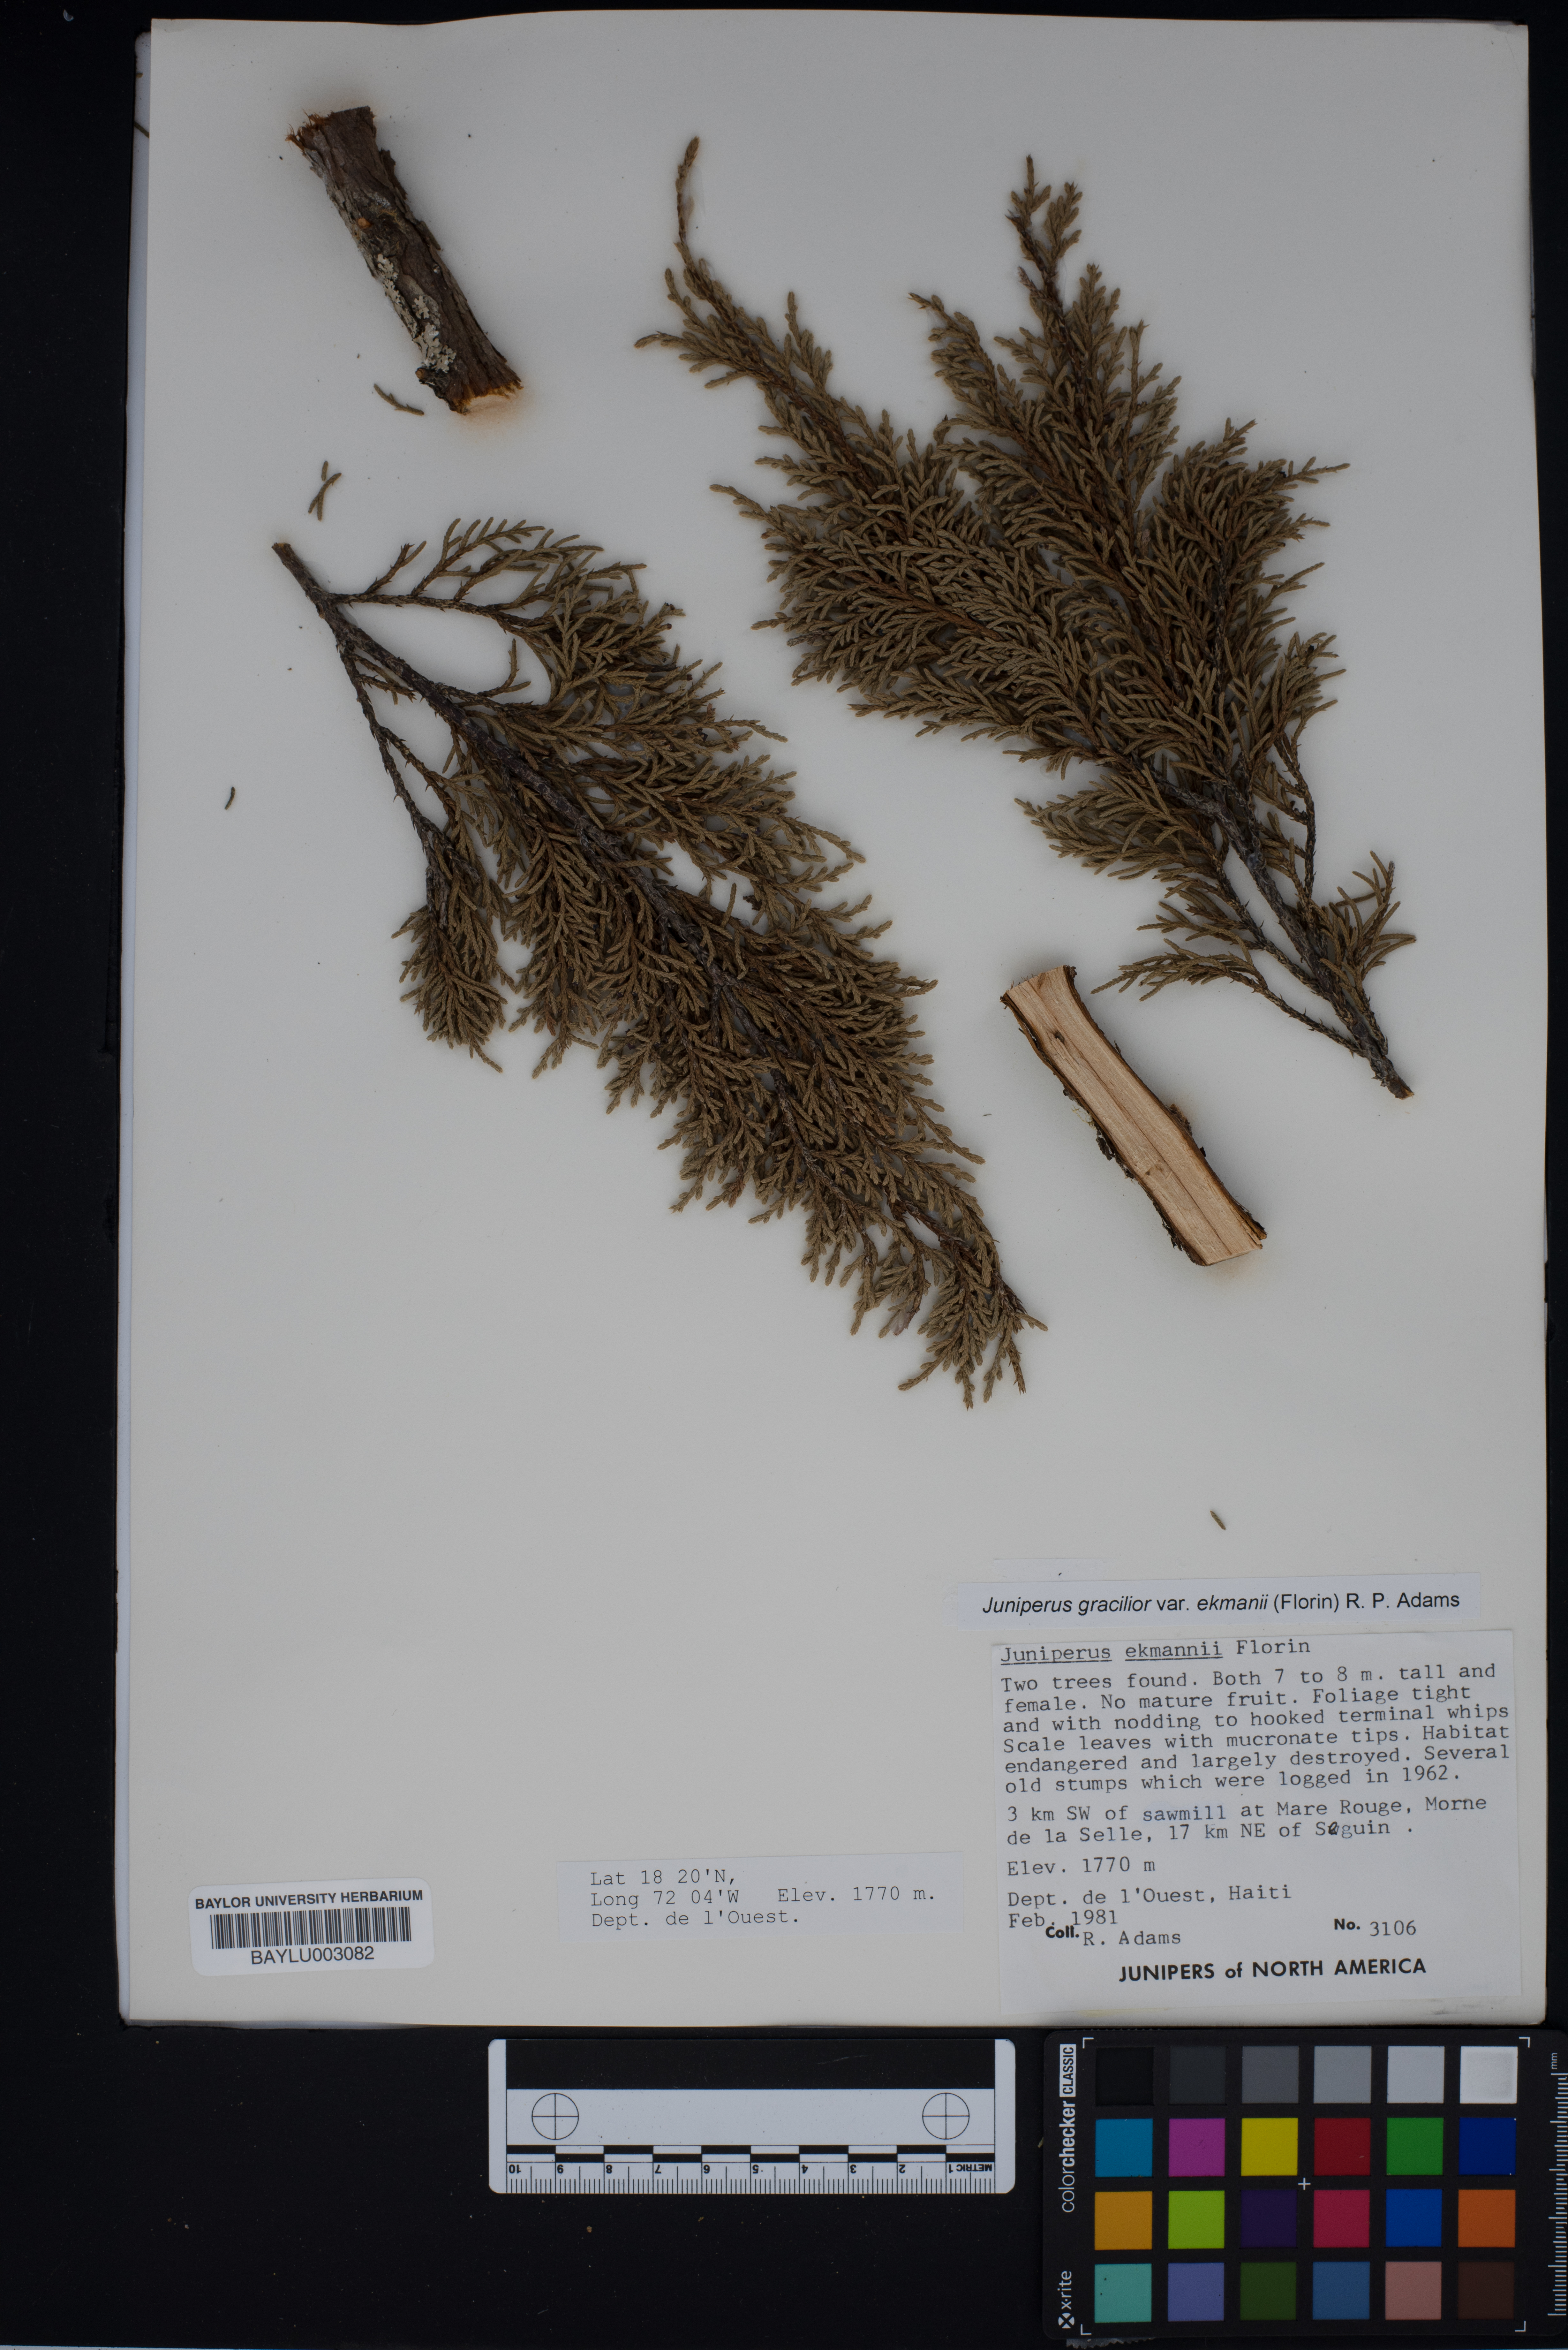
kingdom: Plantae
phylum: Tracheophyta
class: Pinopsida
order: Pinales
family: Cupressaceae
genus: Juniperus
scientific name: Juniperus gracilior
